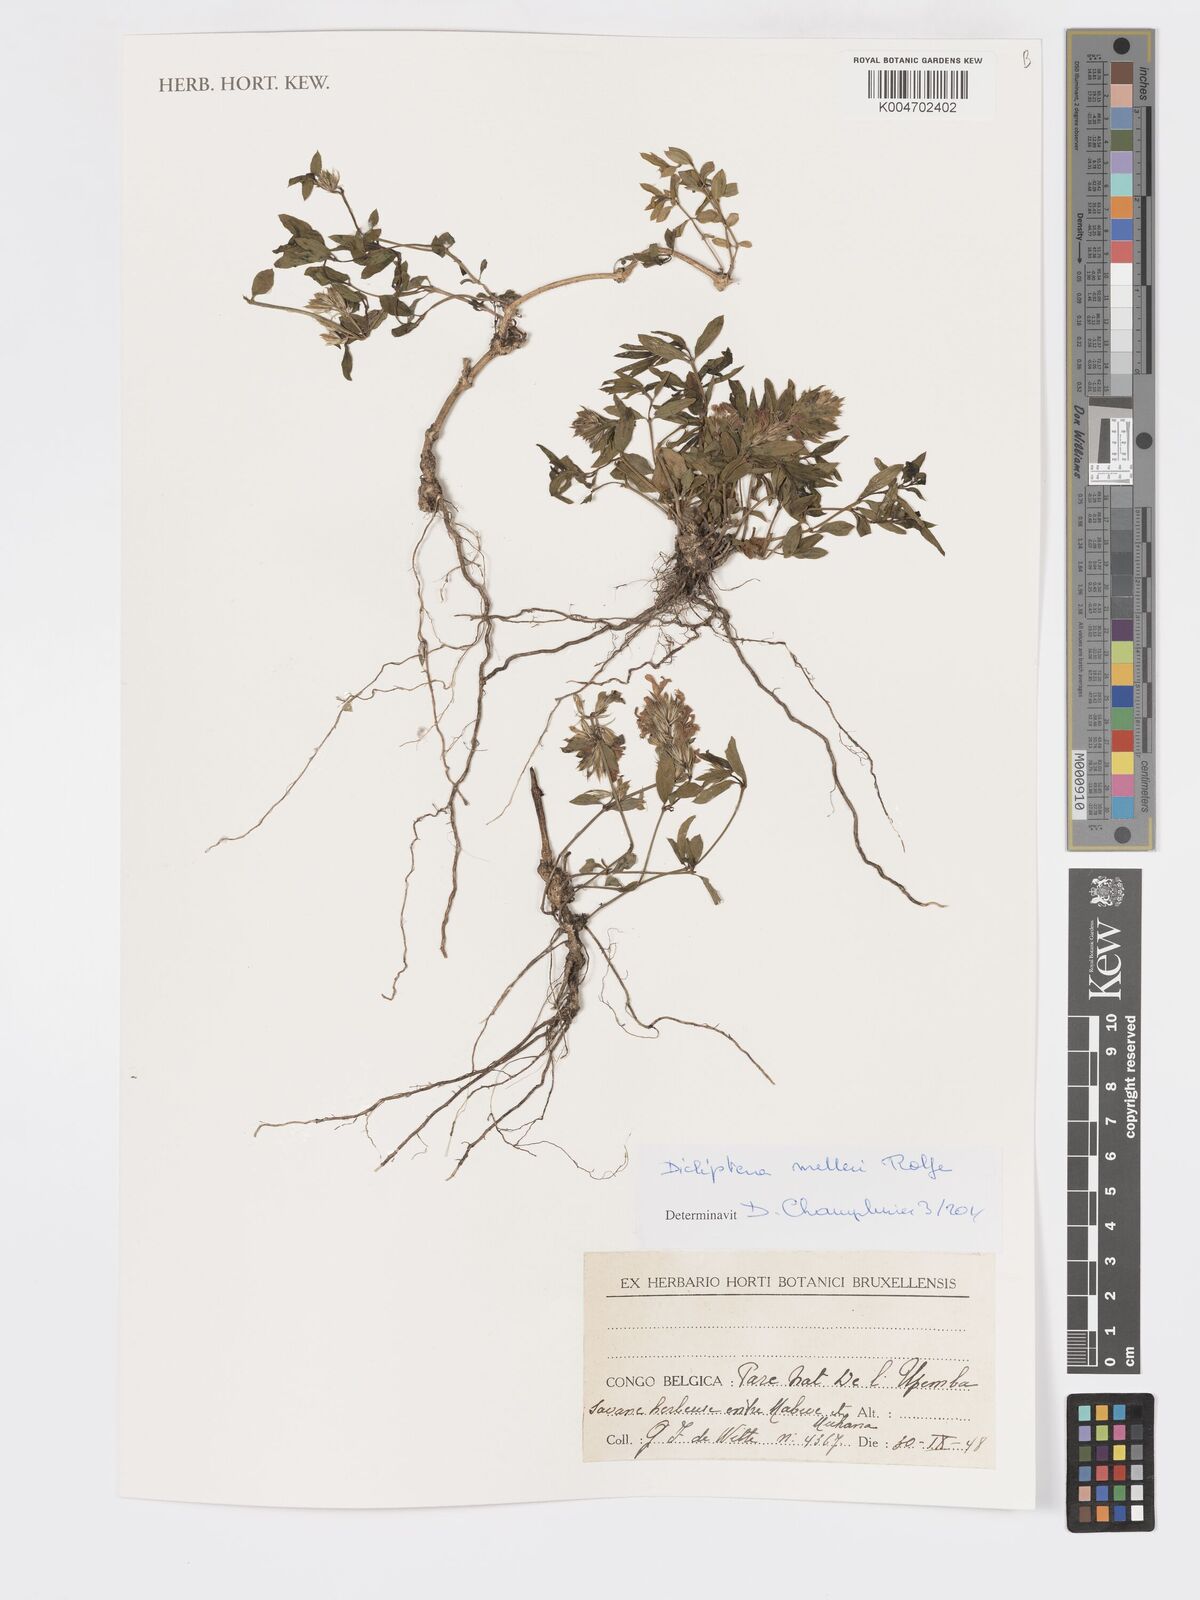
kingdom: Plantae
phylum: Tracheophyta
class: Magnoliopsida
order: Lamiales
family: Acanthaceae
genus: Dicliptera
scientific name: Dicliptera melleri
